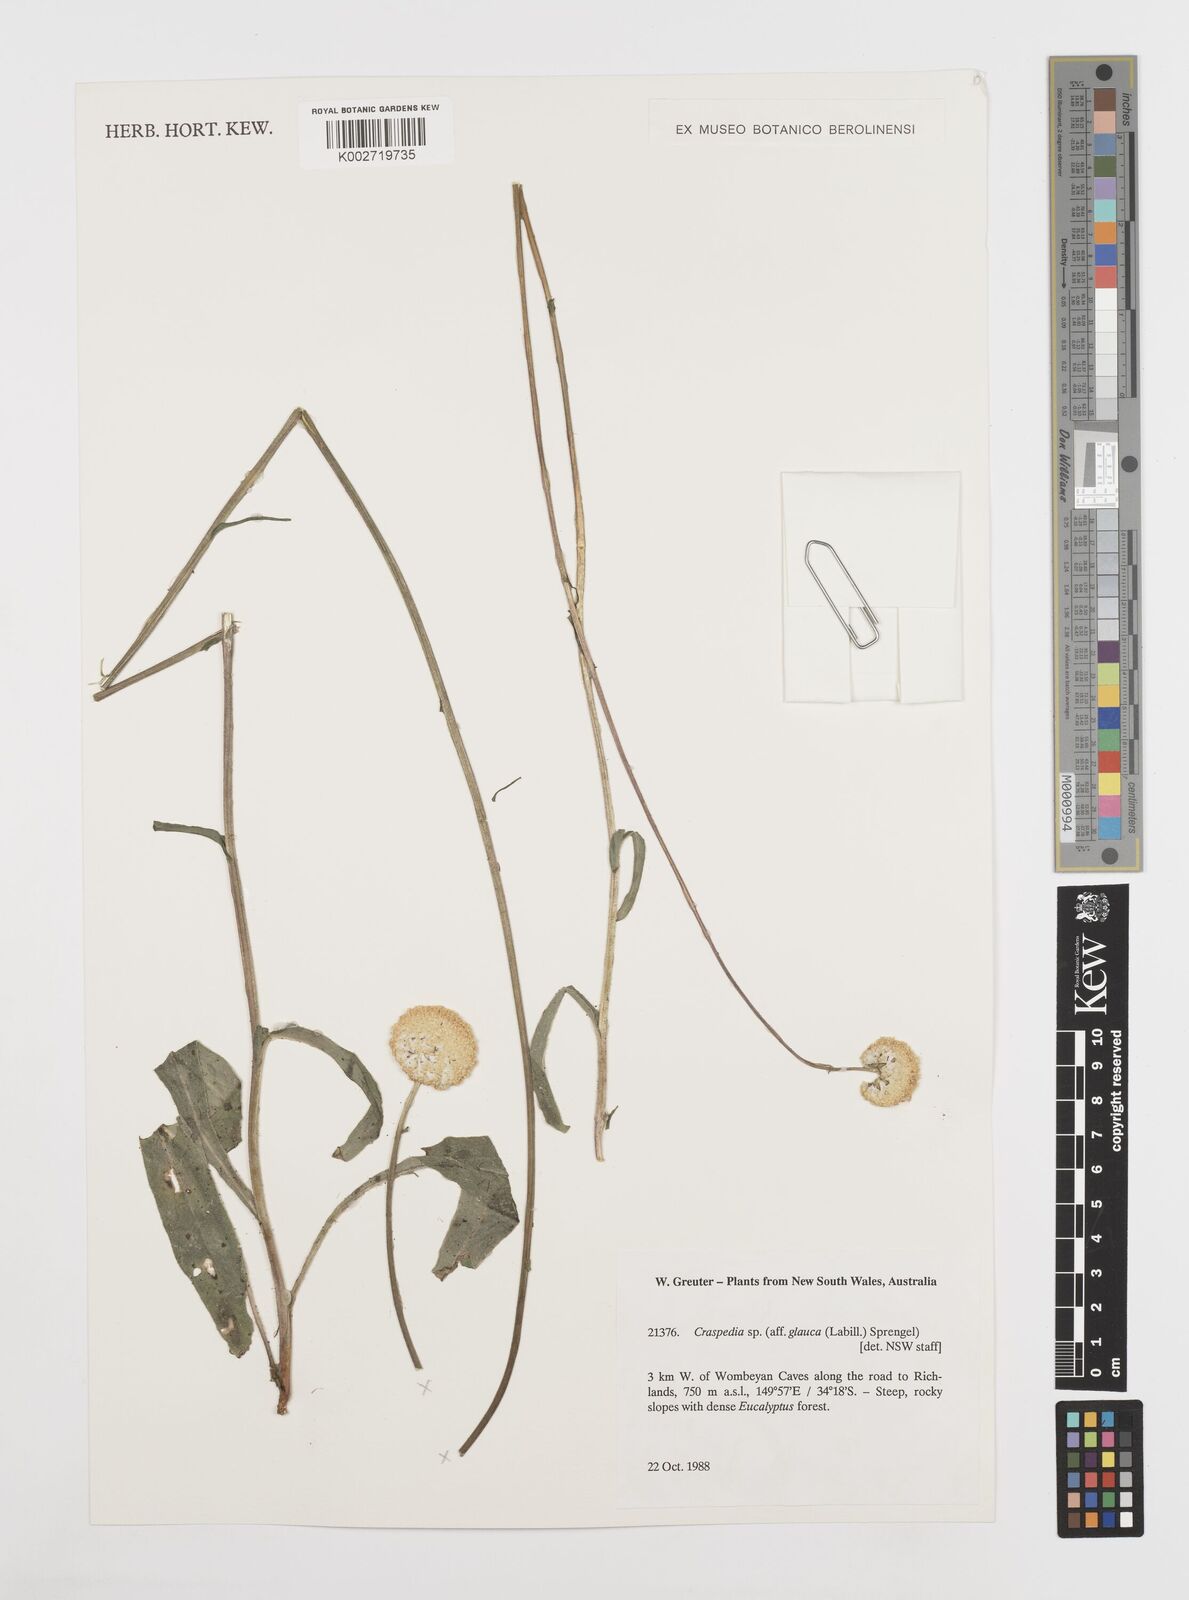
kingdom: Plantae
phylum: Tracheophyta
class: Magnoliopsida
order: Asterales
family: Asteraceae
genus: Craspedia
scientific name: Craspedia glauca
